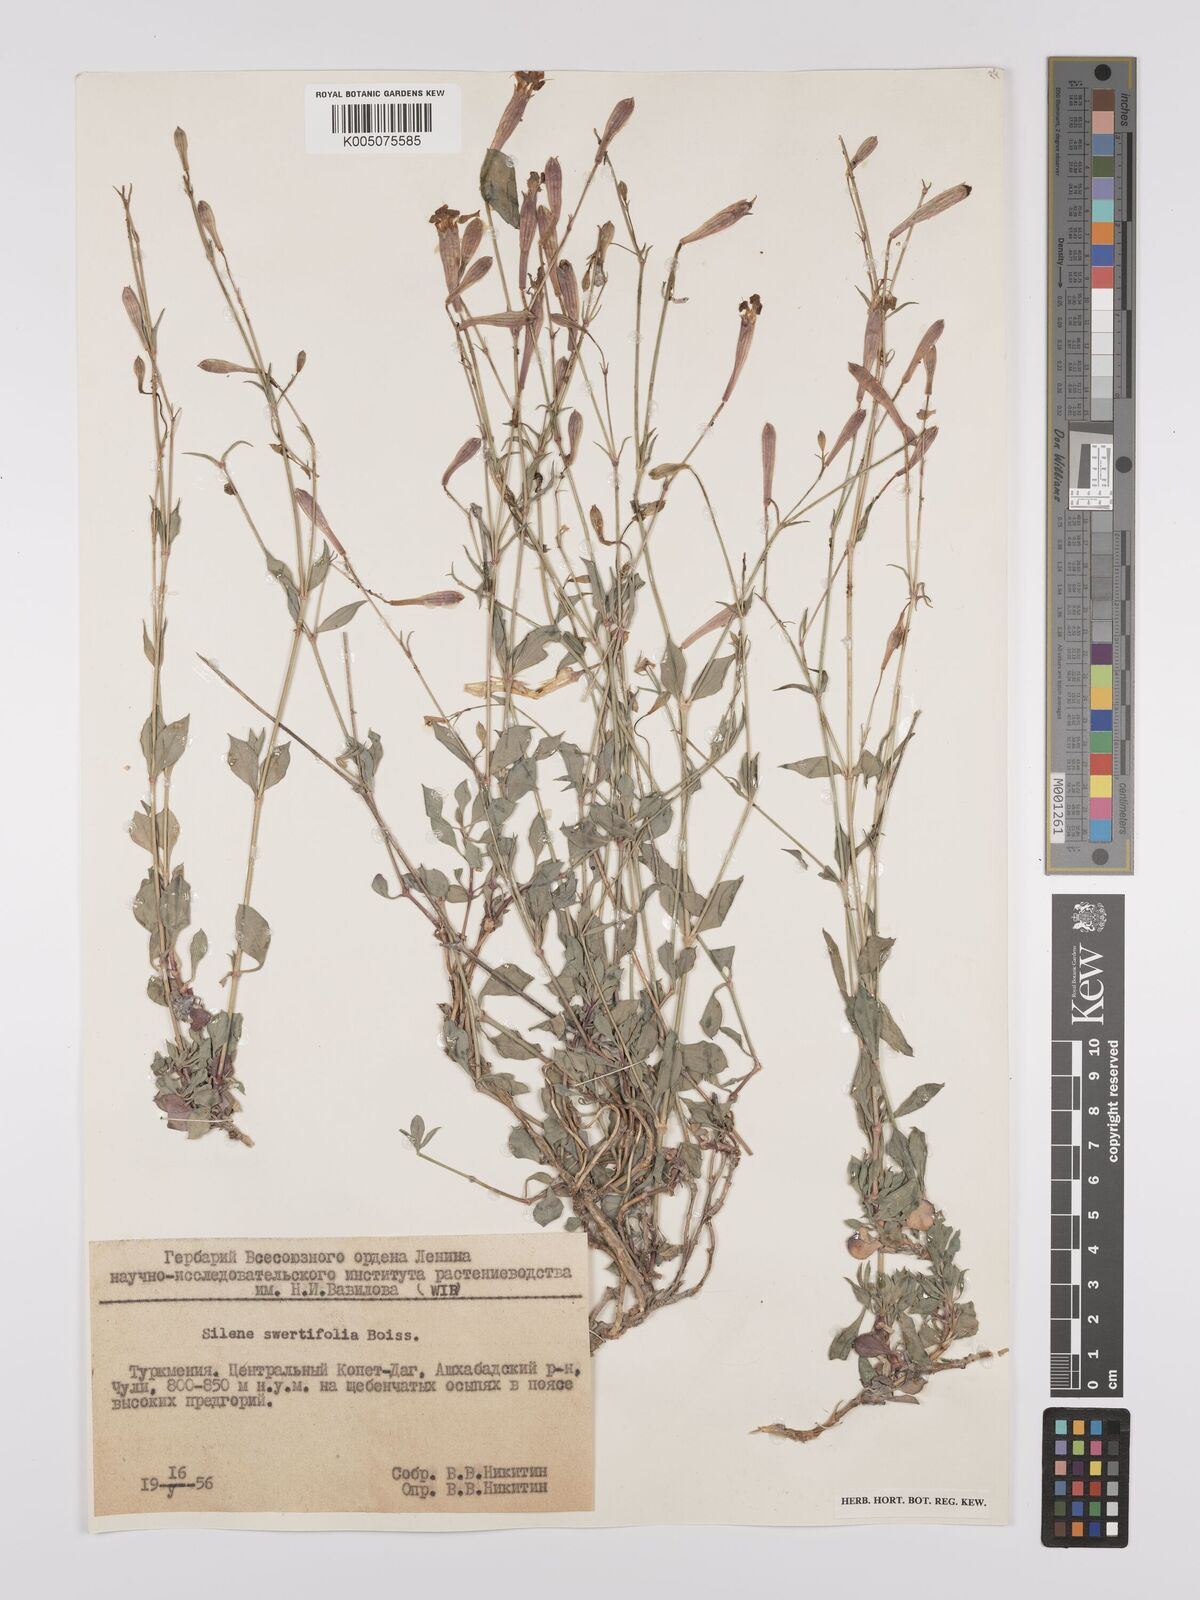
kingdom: Plantae
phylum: Tracheophyta
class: Magnoliopsida
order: Caryophyllales
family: Caryophyllaceae
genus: Silene
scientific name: Silene
